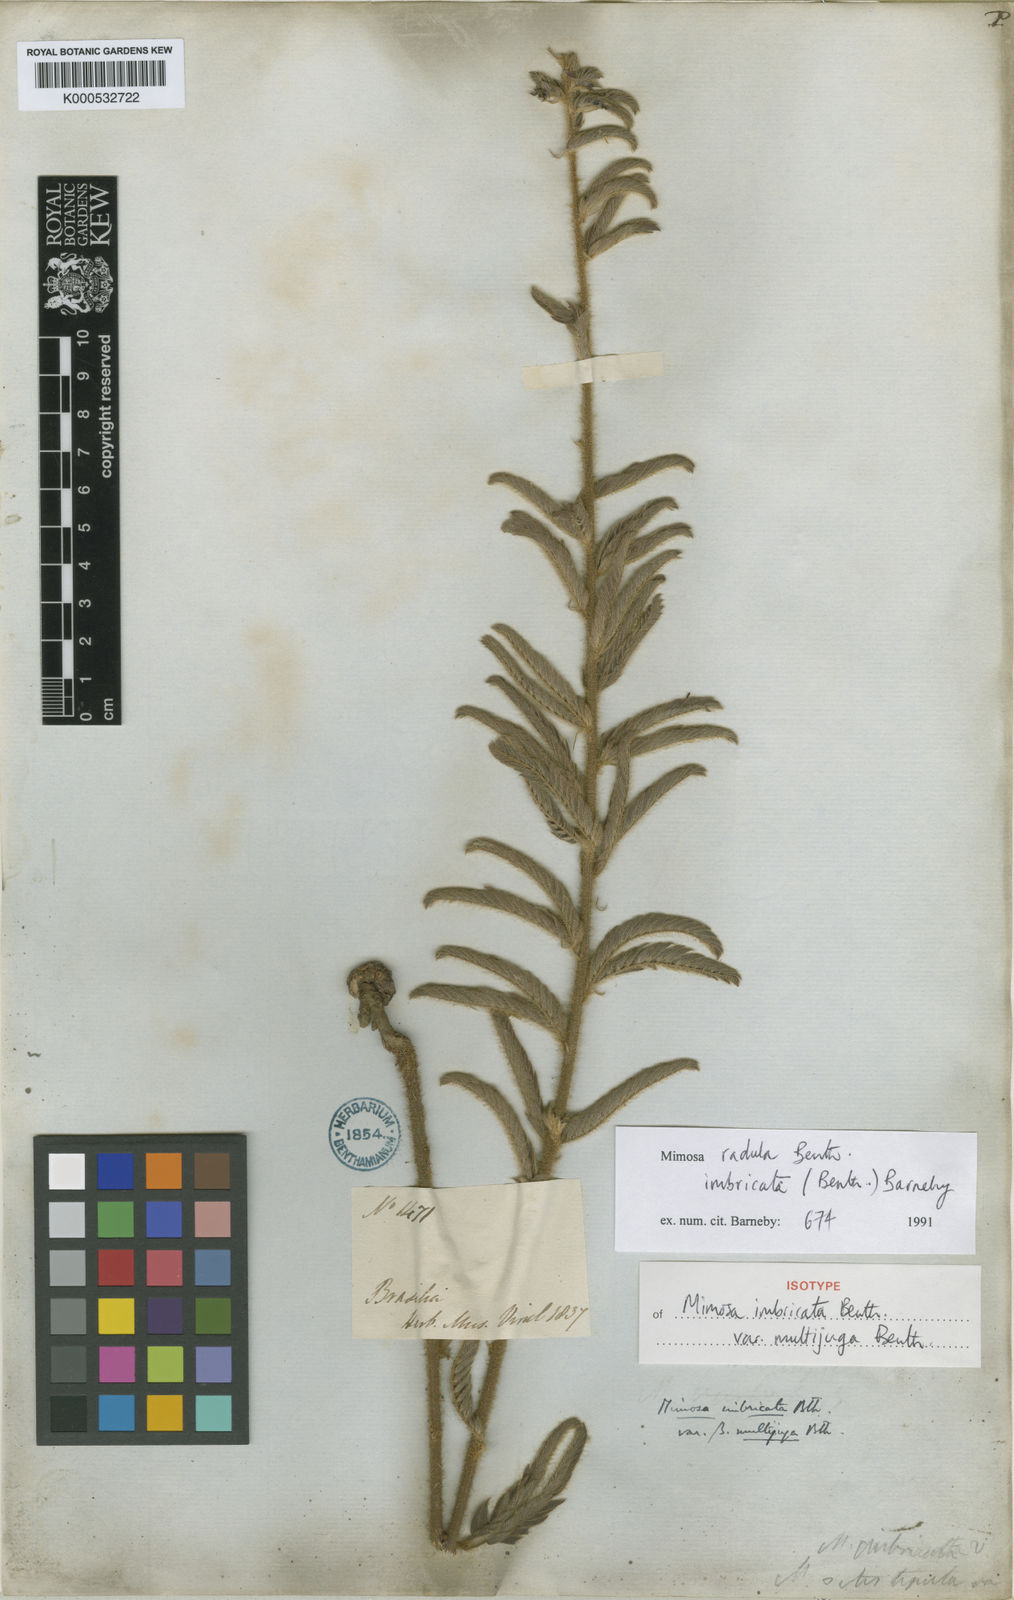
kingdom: Plantae
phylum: Tracheophyta
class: Magnoliopsida
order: Fabales
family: Fabaceae
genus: Mimosa
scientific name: Mimosa radula
